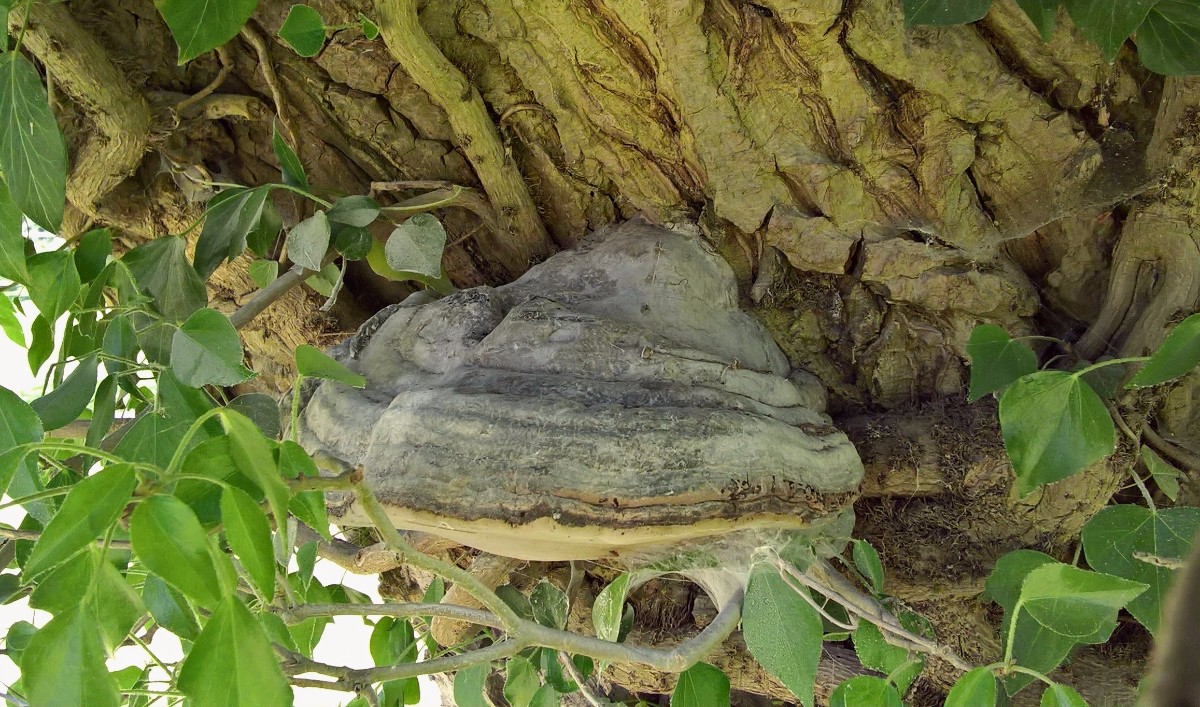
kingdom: Fungi
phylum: Basidiomycota
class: Agaricomycetes
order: Polyporales
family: Polyporaceae
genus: Fomes
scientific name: Fomes fomentarius
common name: tøndersvamp
